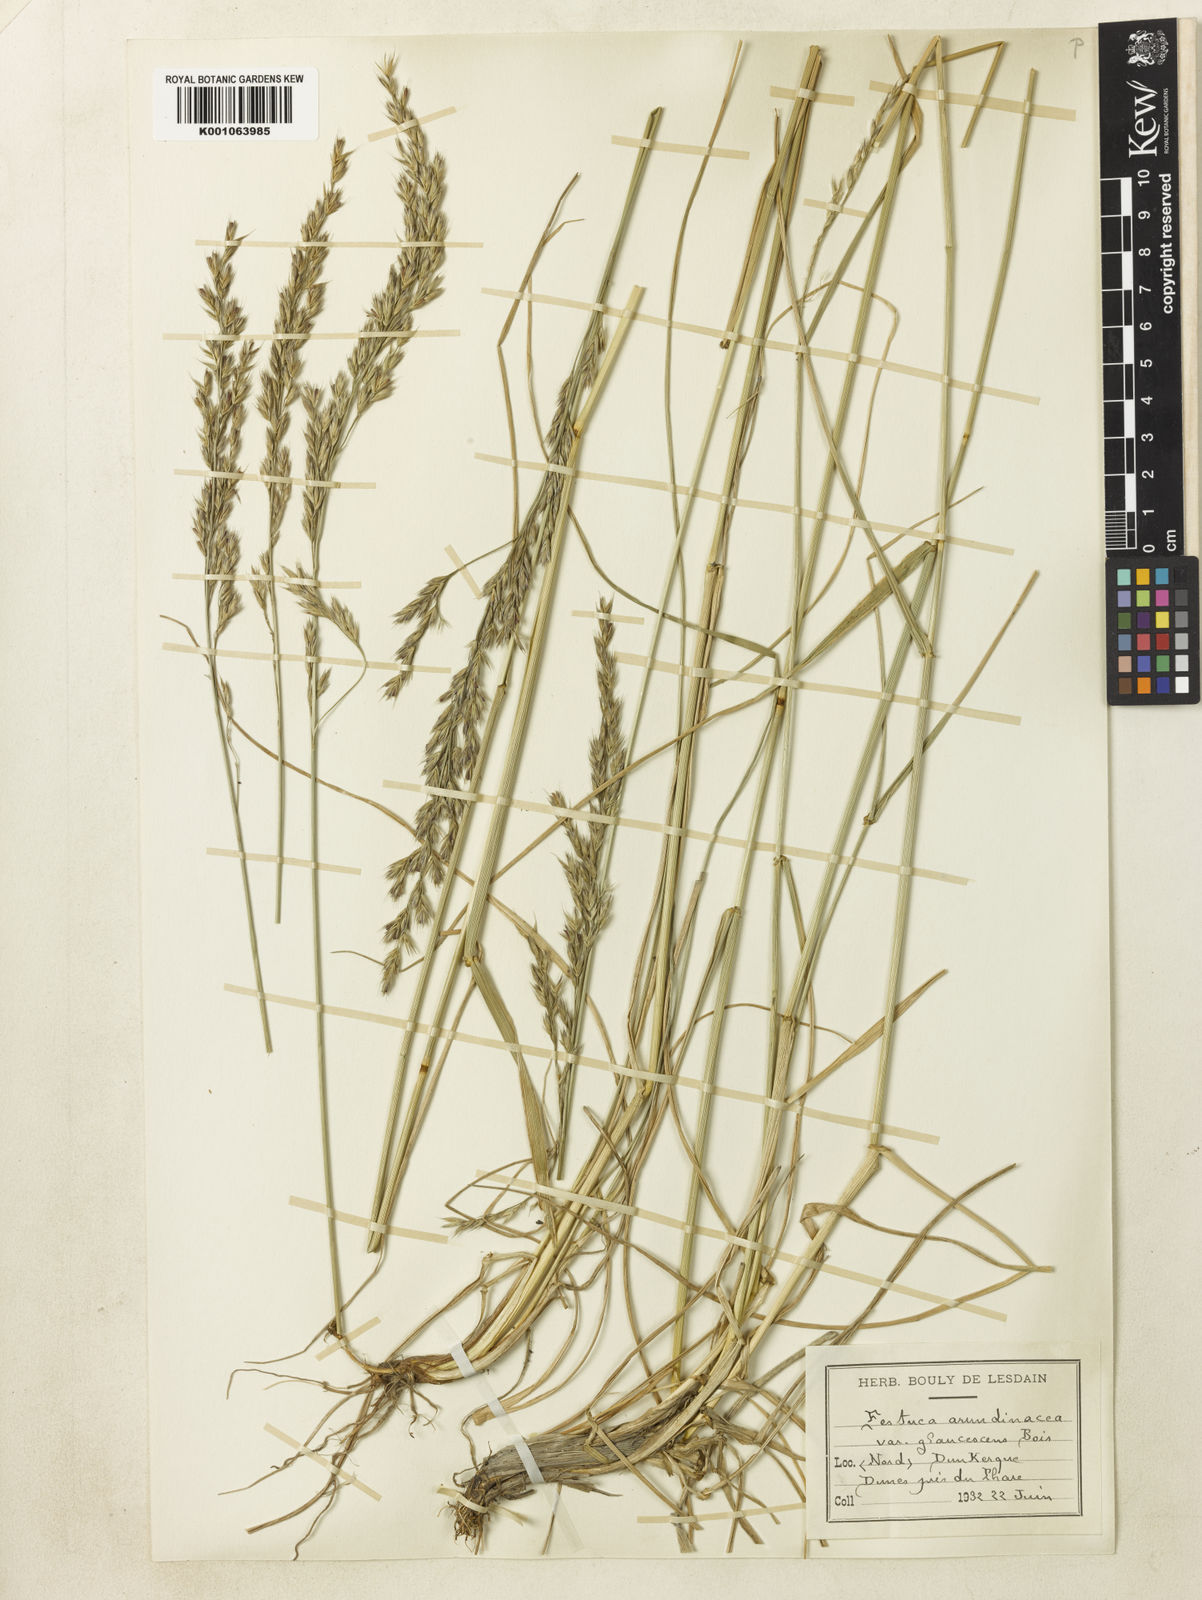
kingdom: Plantae
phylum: Tracheophyta
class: Liliopsida
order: Poales
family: Poaceae
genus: Lolium
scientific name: Lolium arundinaceum
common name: Reed fescue
